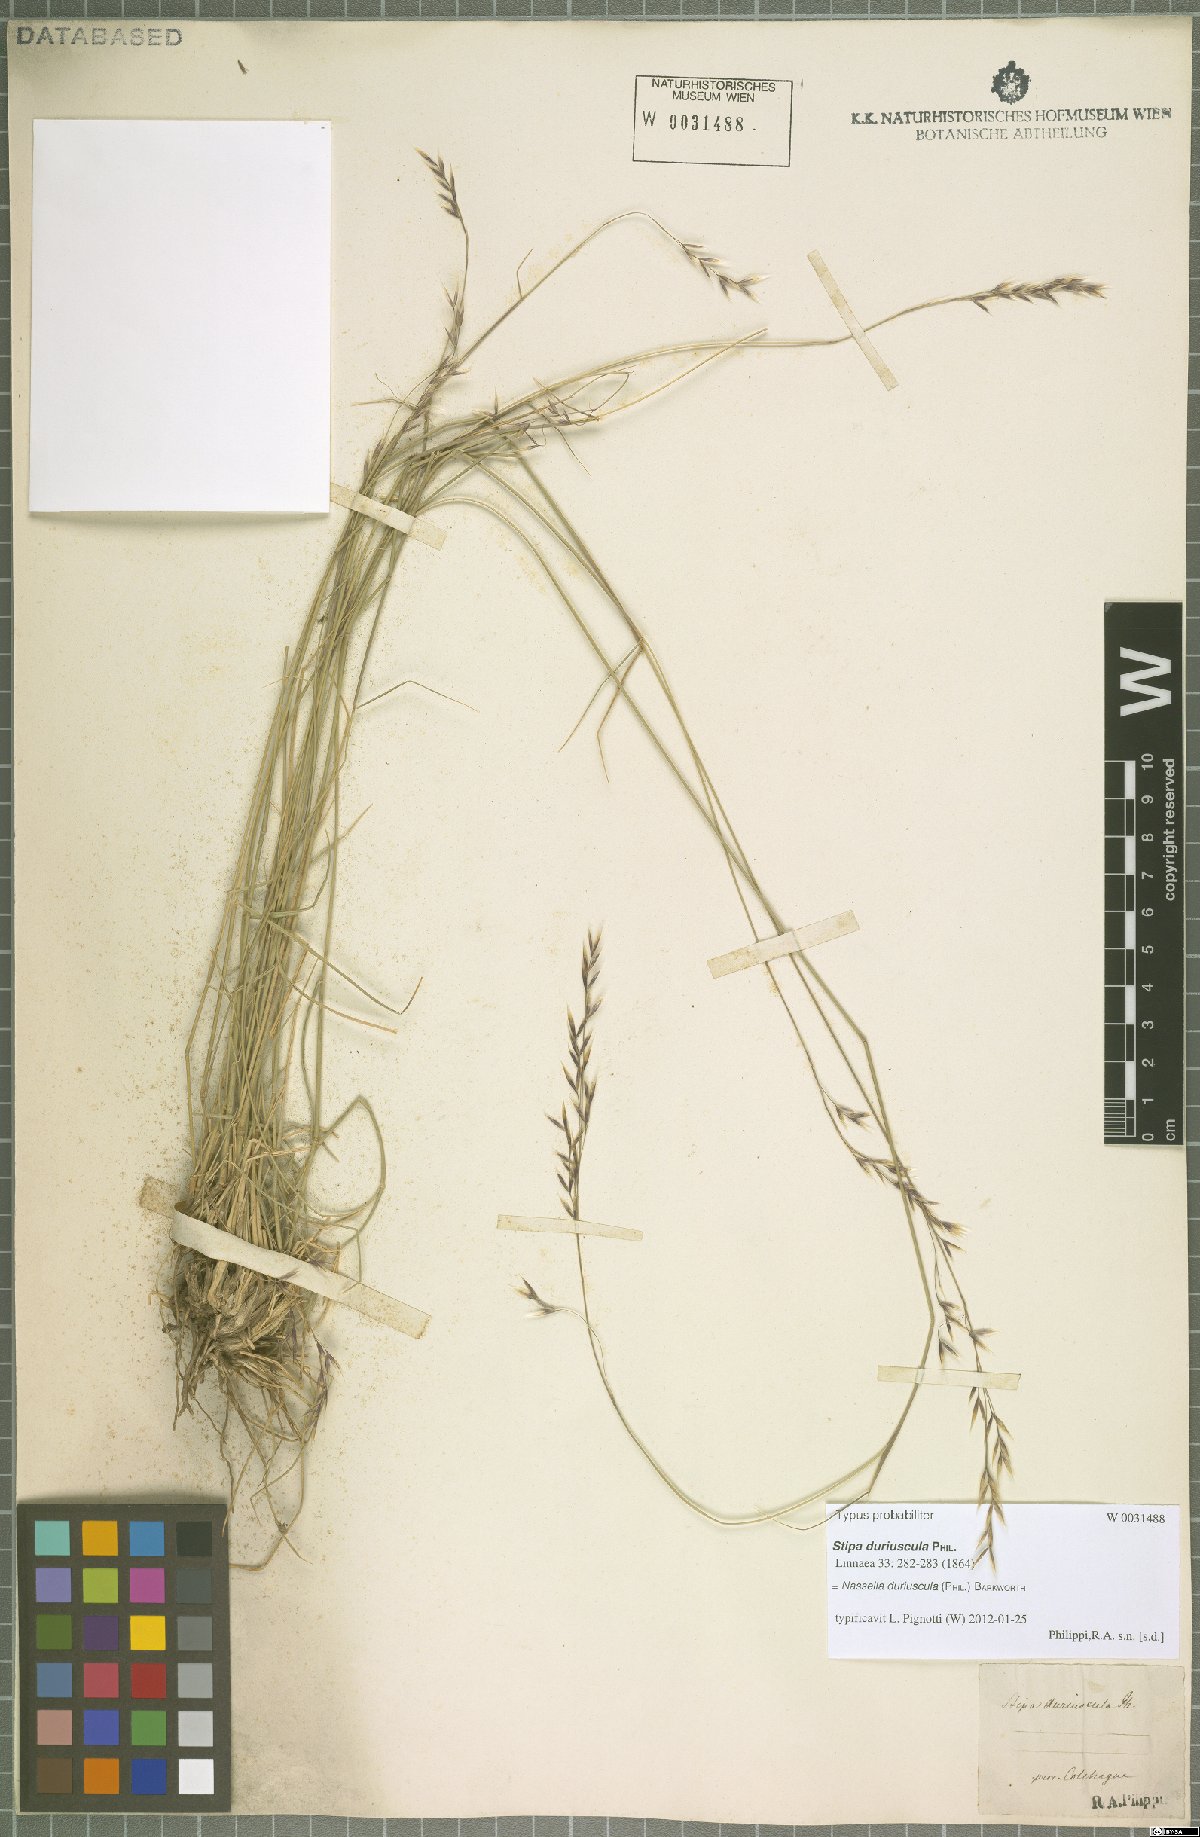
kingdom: Plantae
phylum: Tracheophyta
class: Liliopsida
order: Poales
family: Poaceae
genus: Nassella
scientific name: Nassella duriuscula
